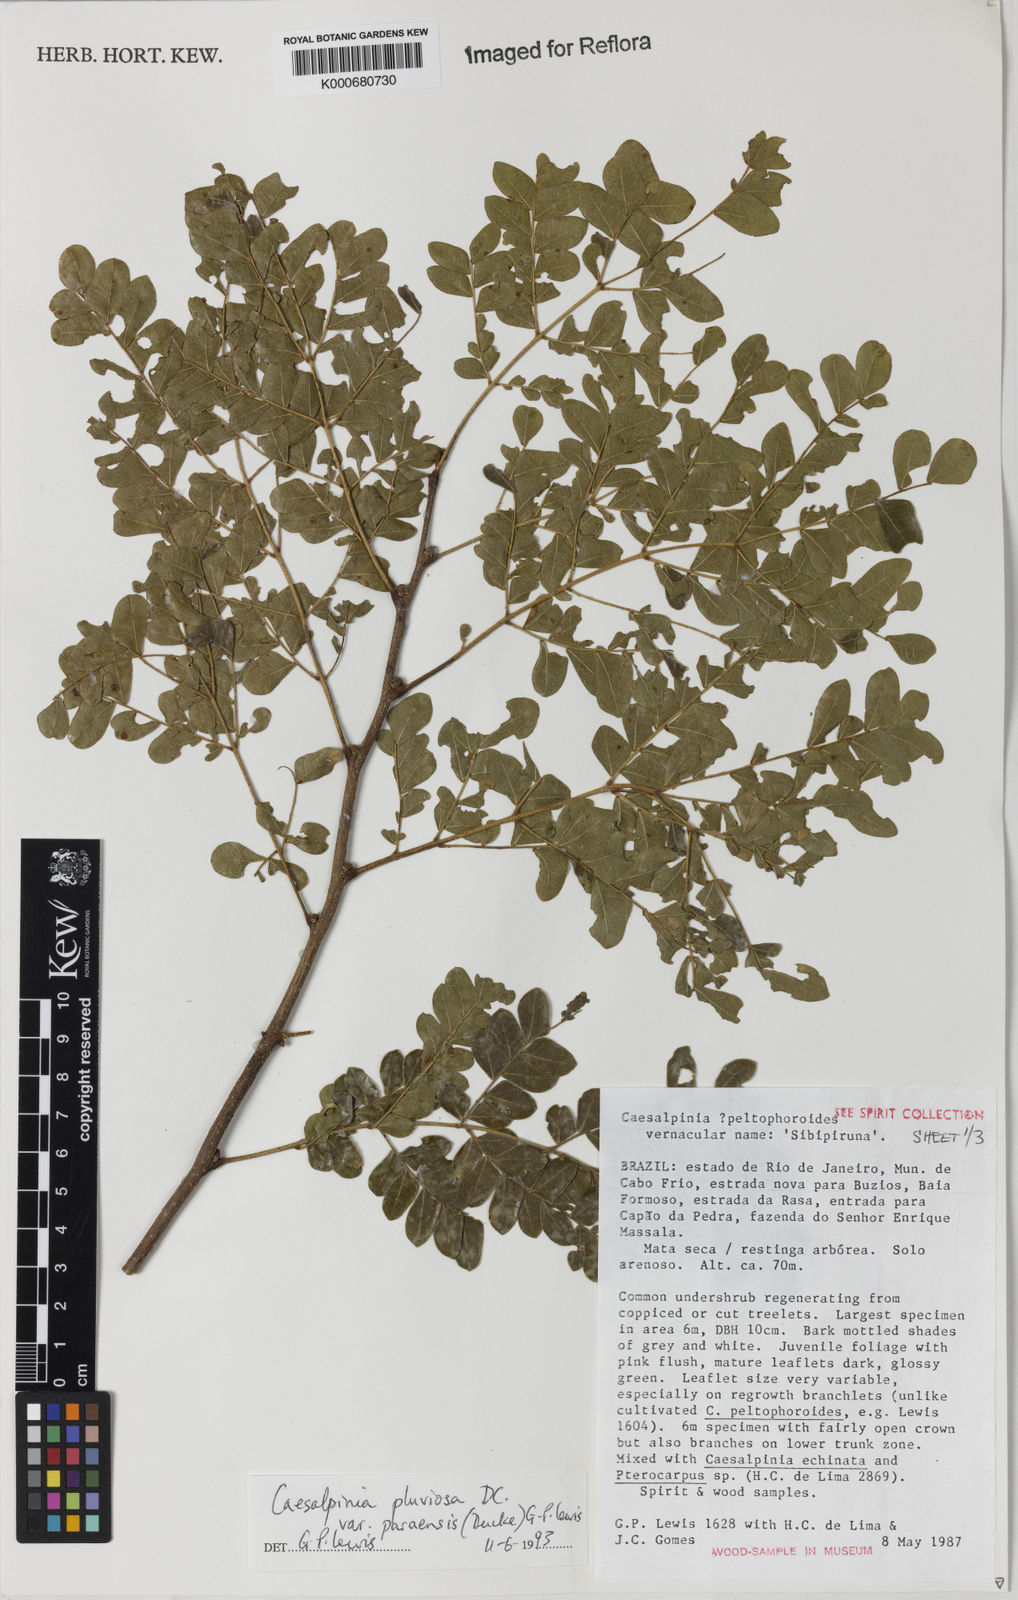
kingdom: Plantae
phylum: Tracheophyta
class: Magnoliopsida
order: Fabales
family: Fabaceae
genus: Cenostigma
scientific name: Cenostigma pluviosum
